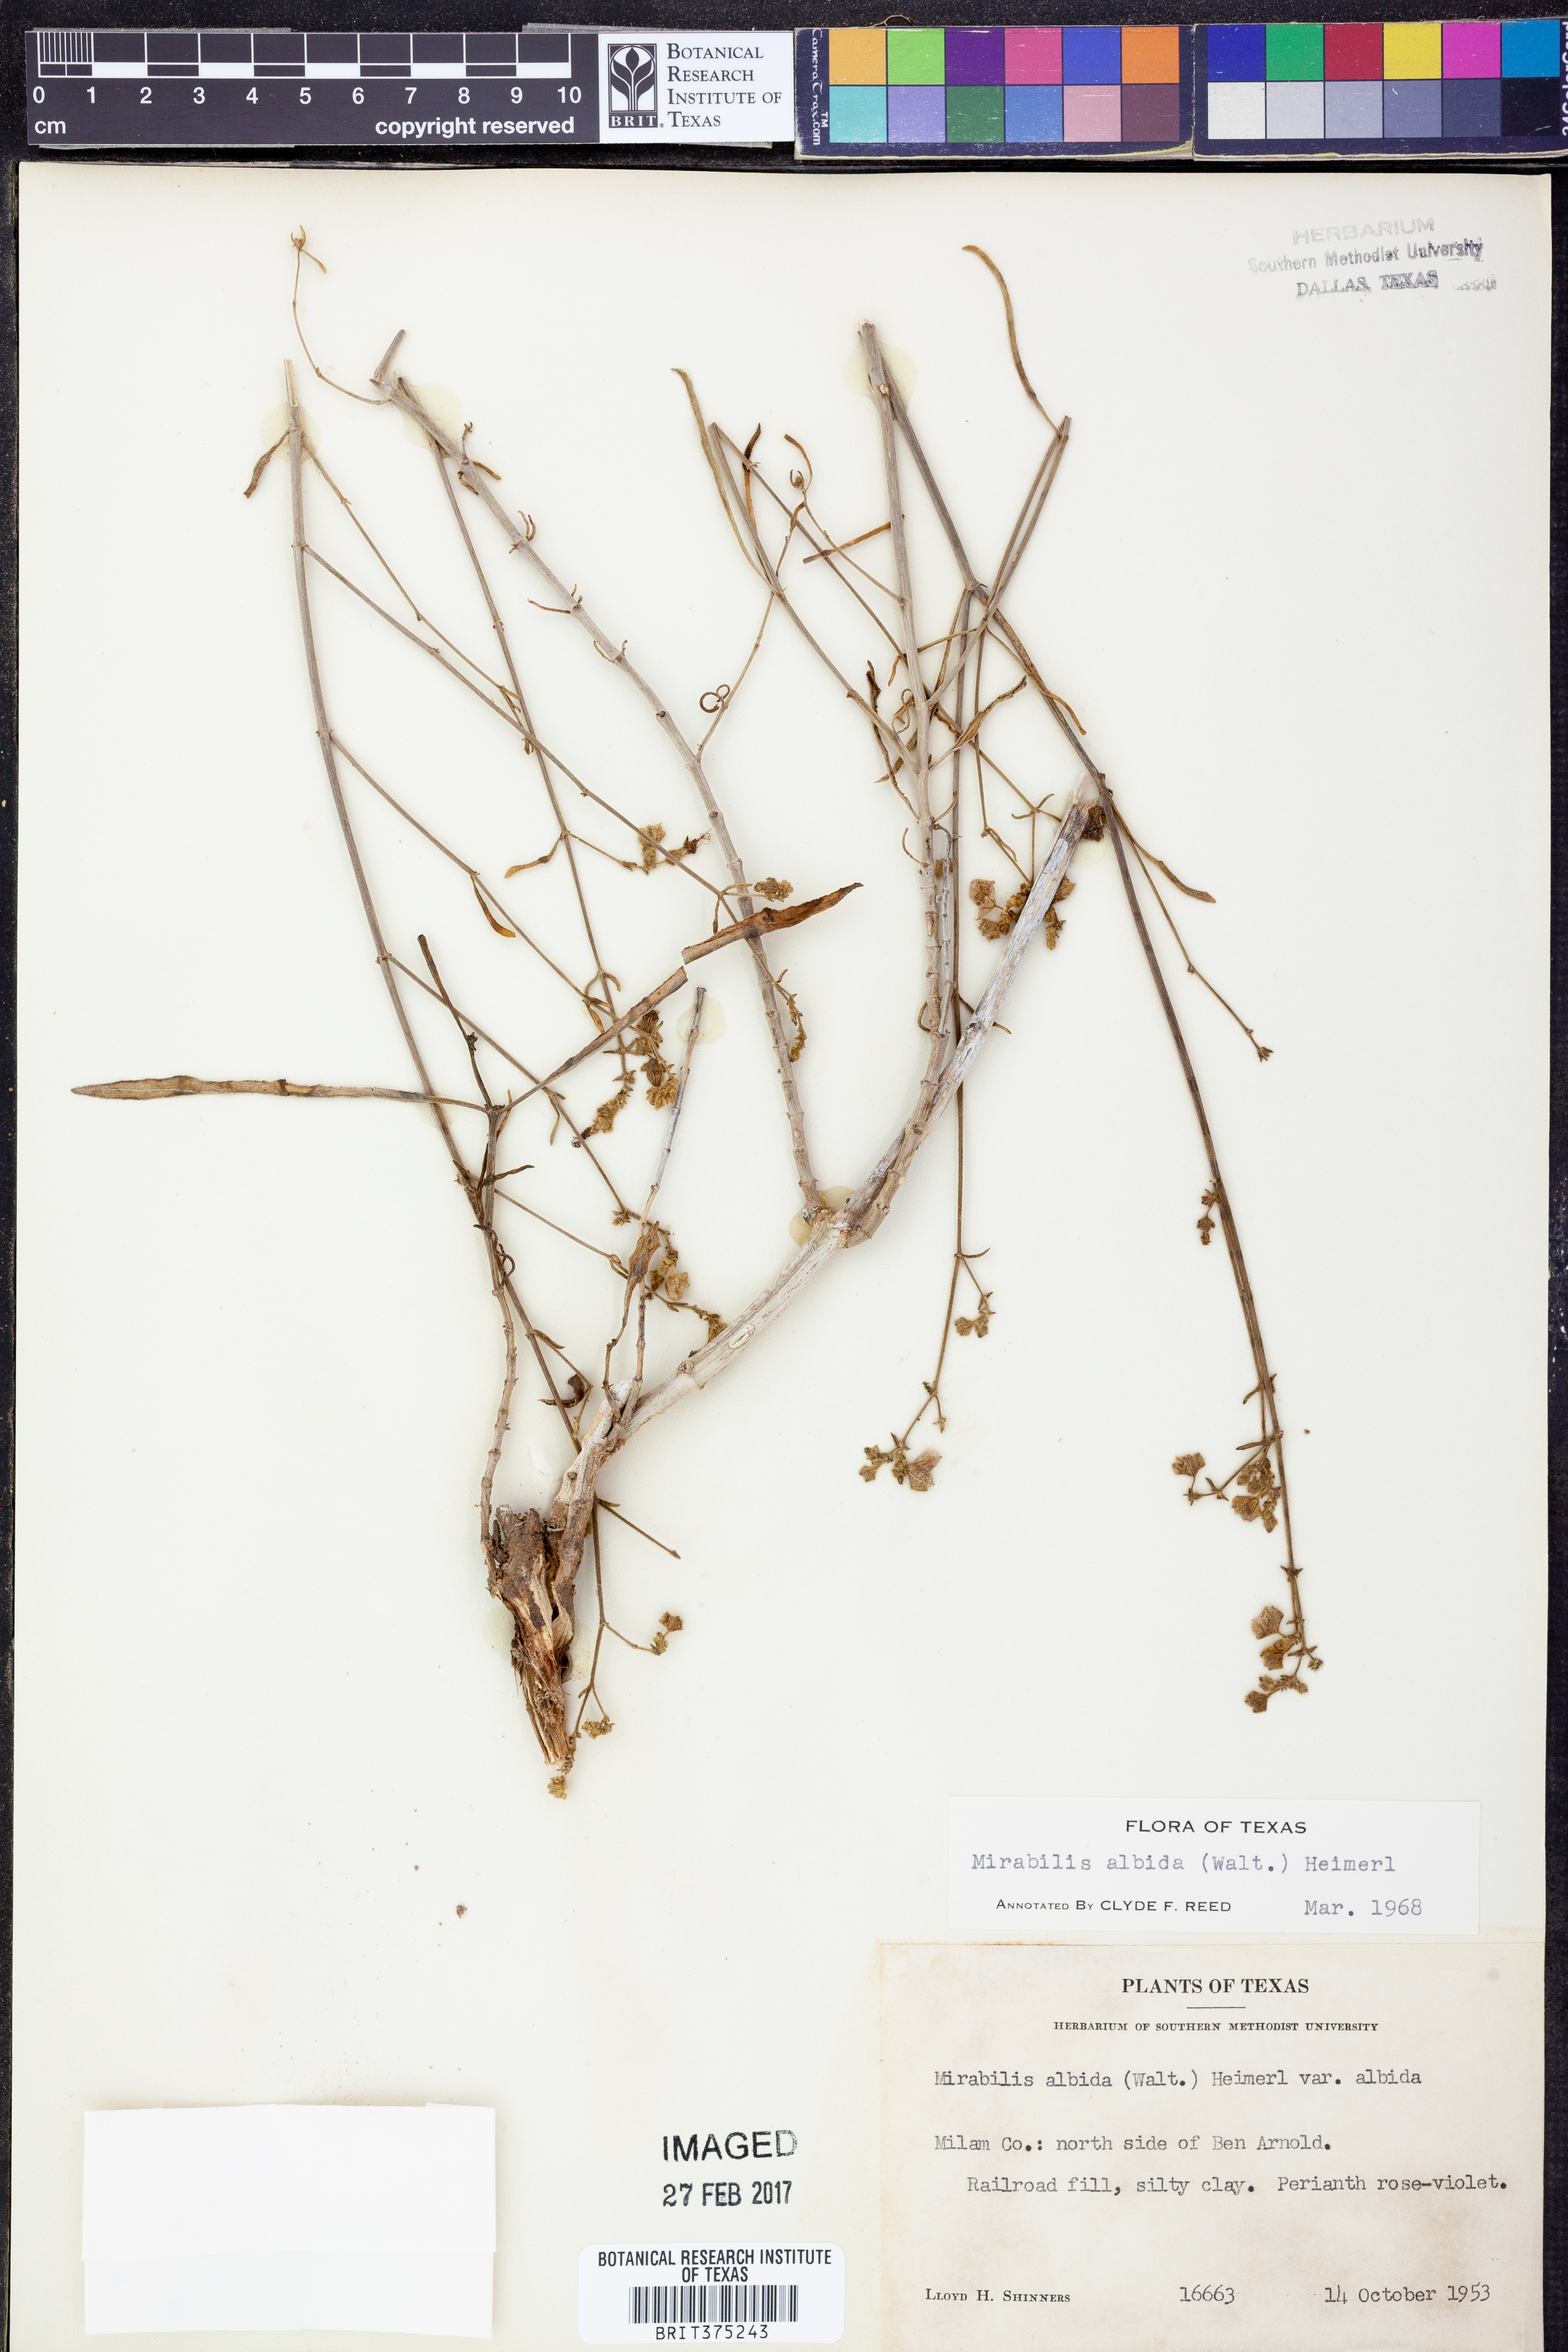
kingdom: Plantae
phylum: Tracheophyta
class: Magnoliopsida
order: Caryophyllales
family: Nyctaginaceae
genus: Mirabilis
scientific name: Mirabilis albida
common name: Hairy four-o'clock
